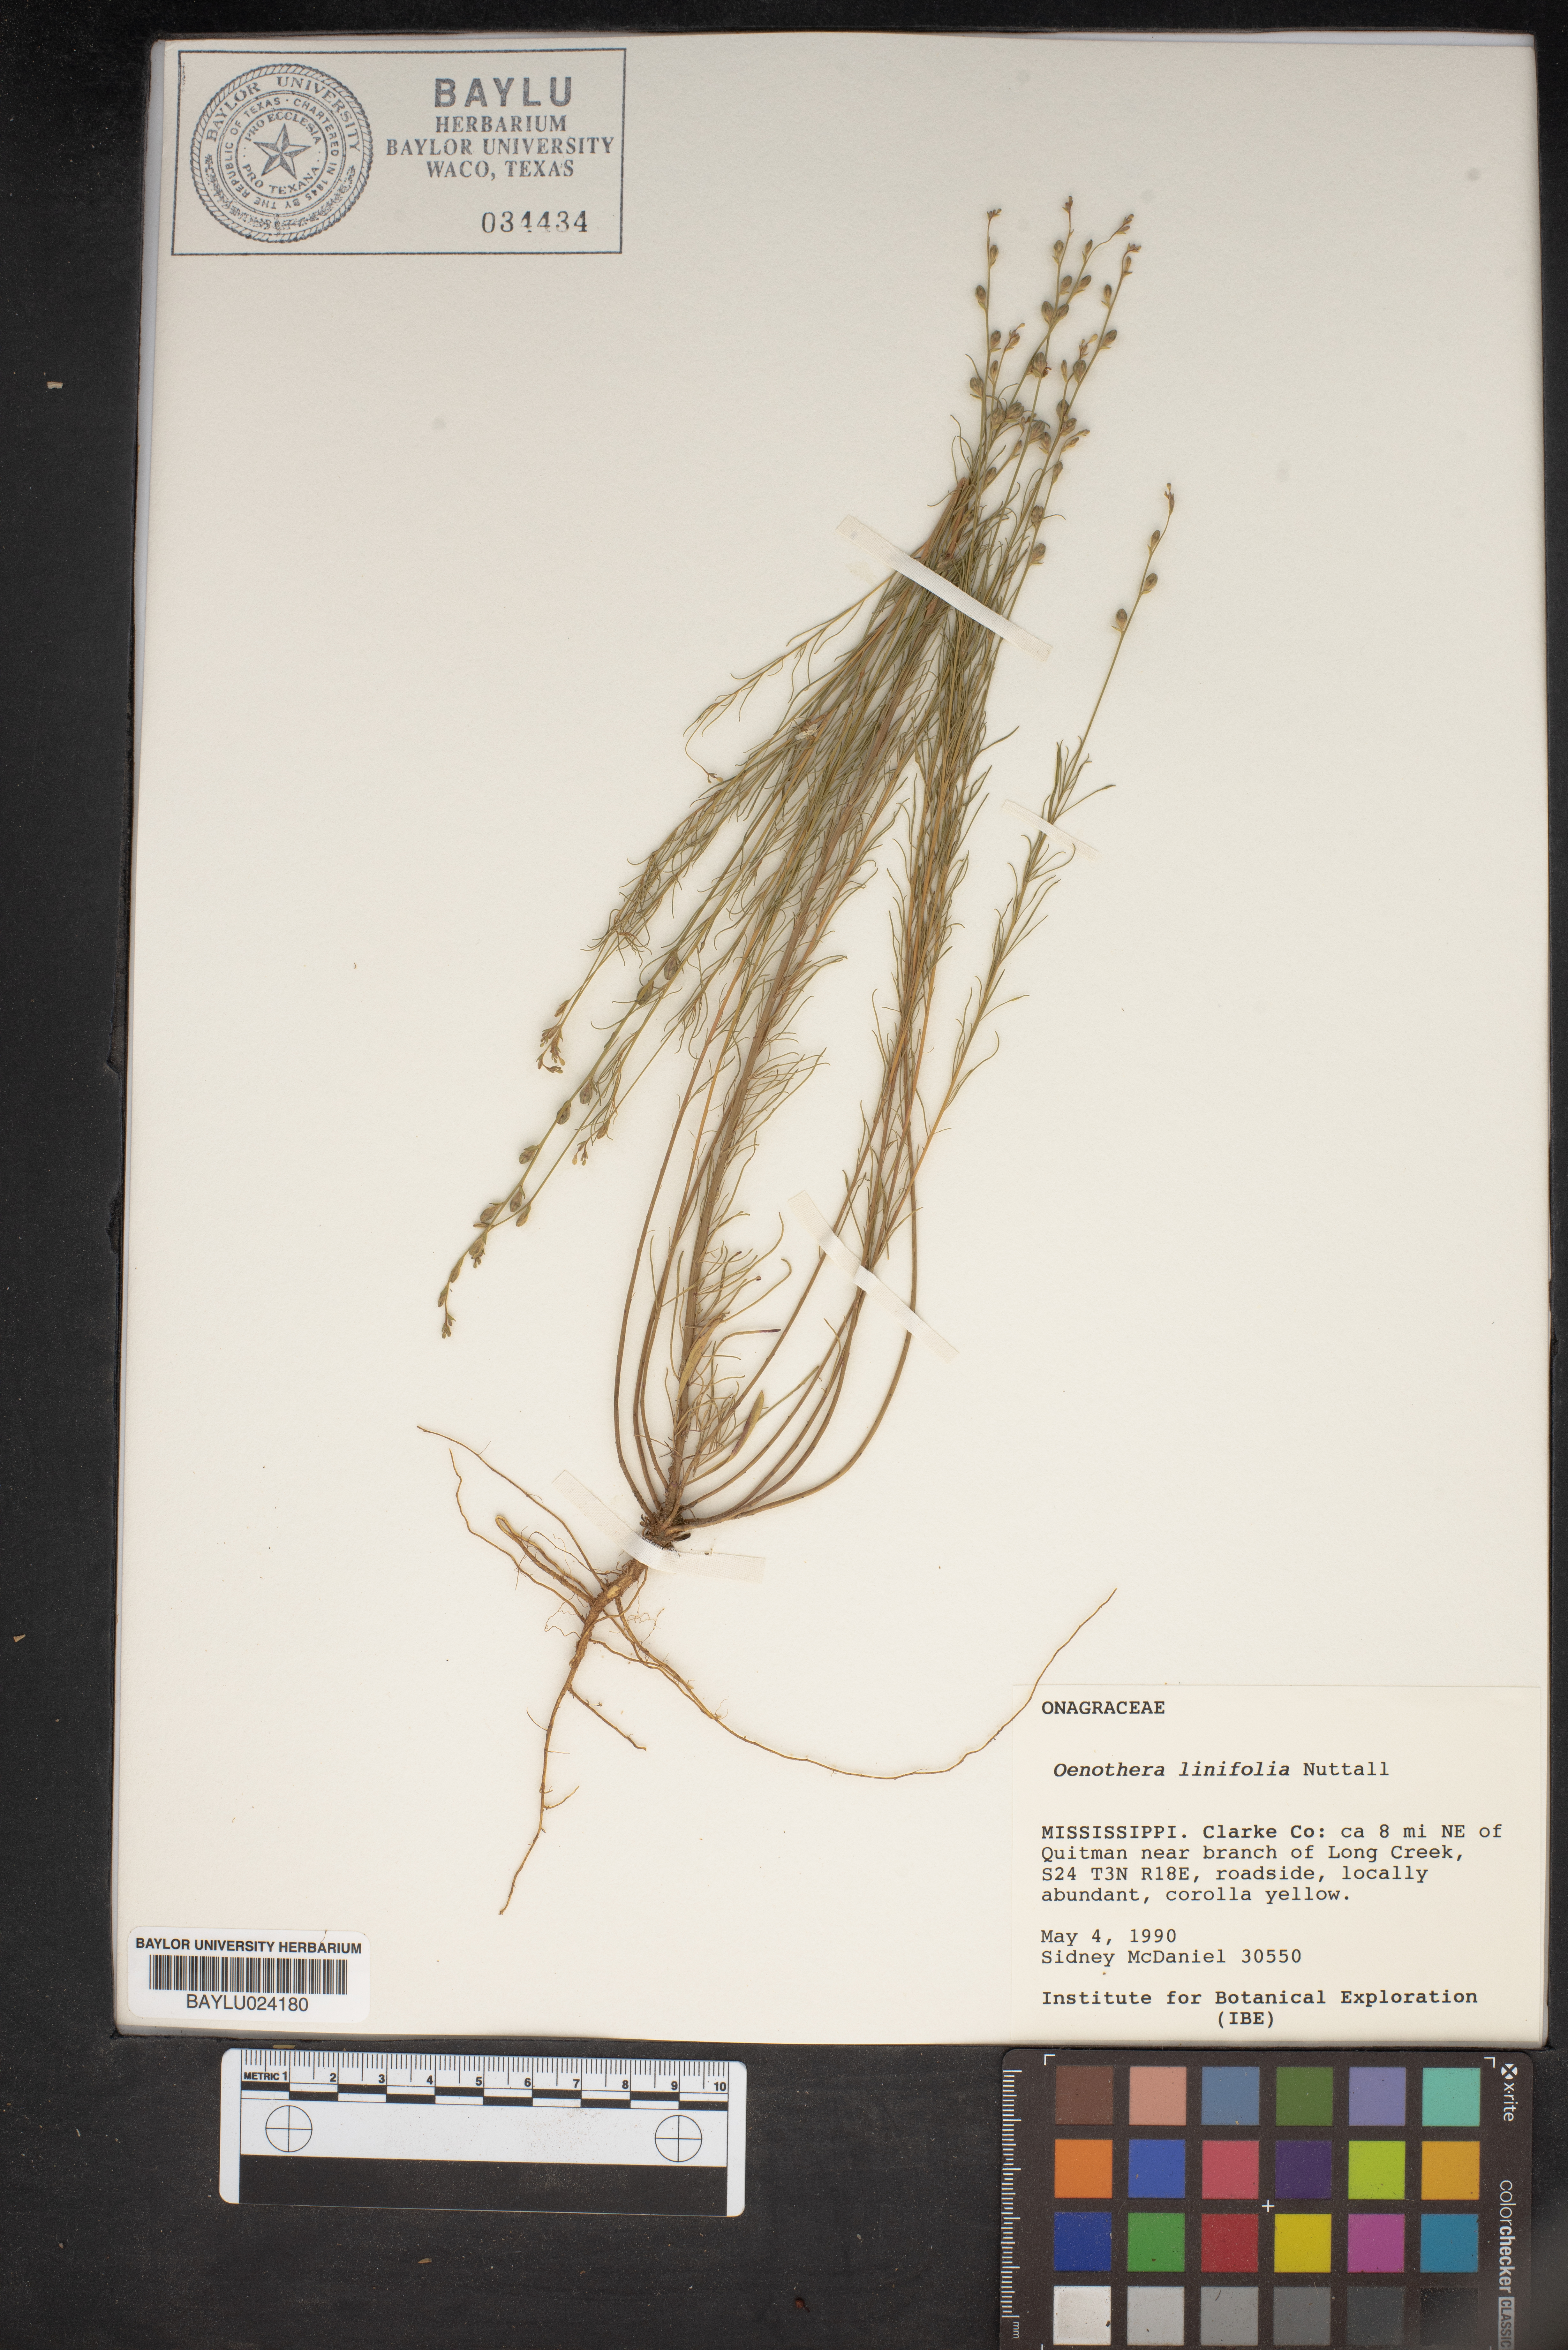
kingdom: Plantae
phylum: Tracheophyta
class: Magnoliopsida
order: Myrtales
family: Onagraceae
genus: Oenothera
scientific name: Oenothera linifolia
